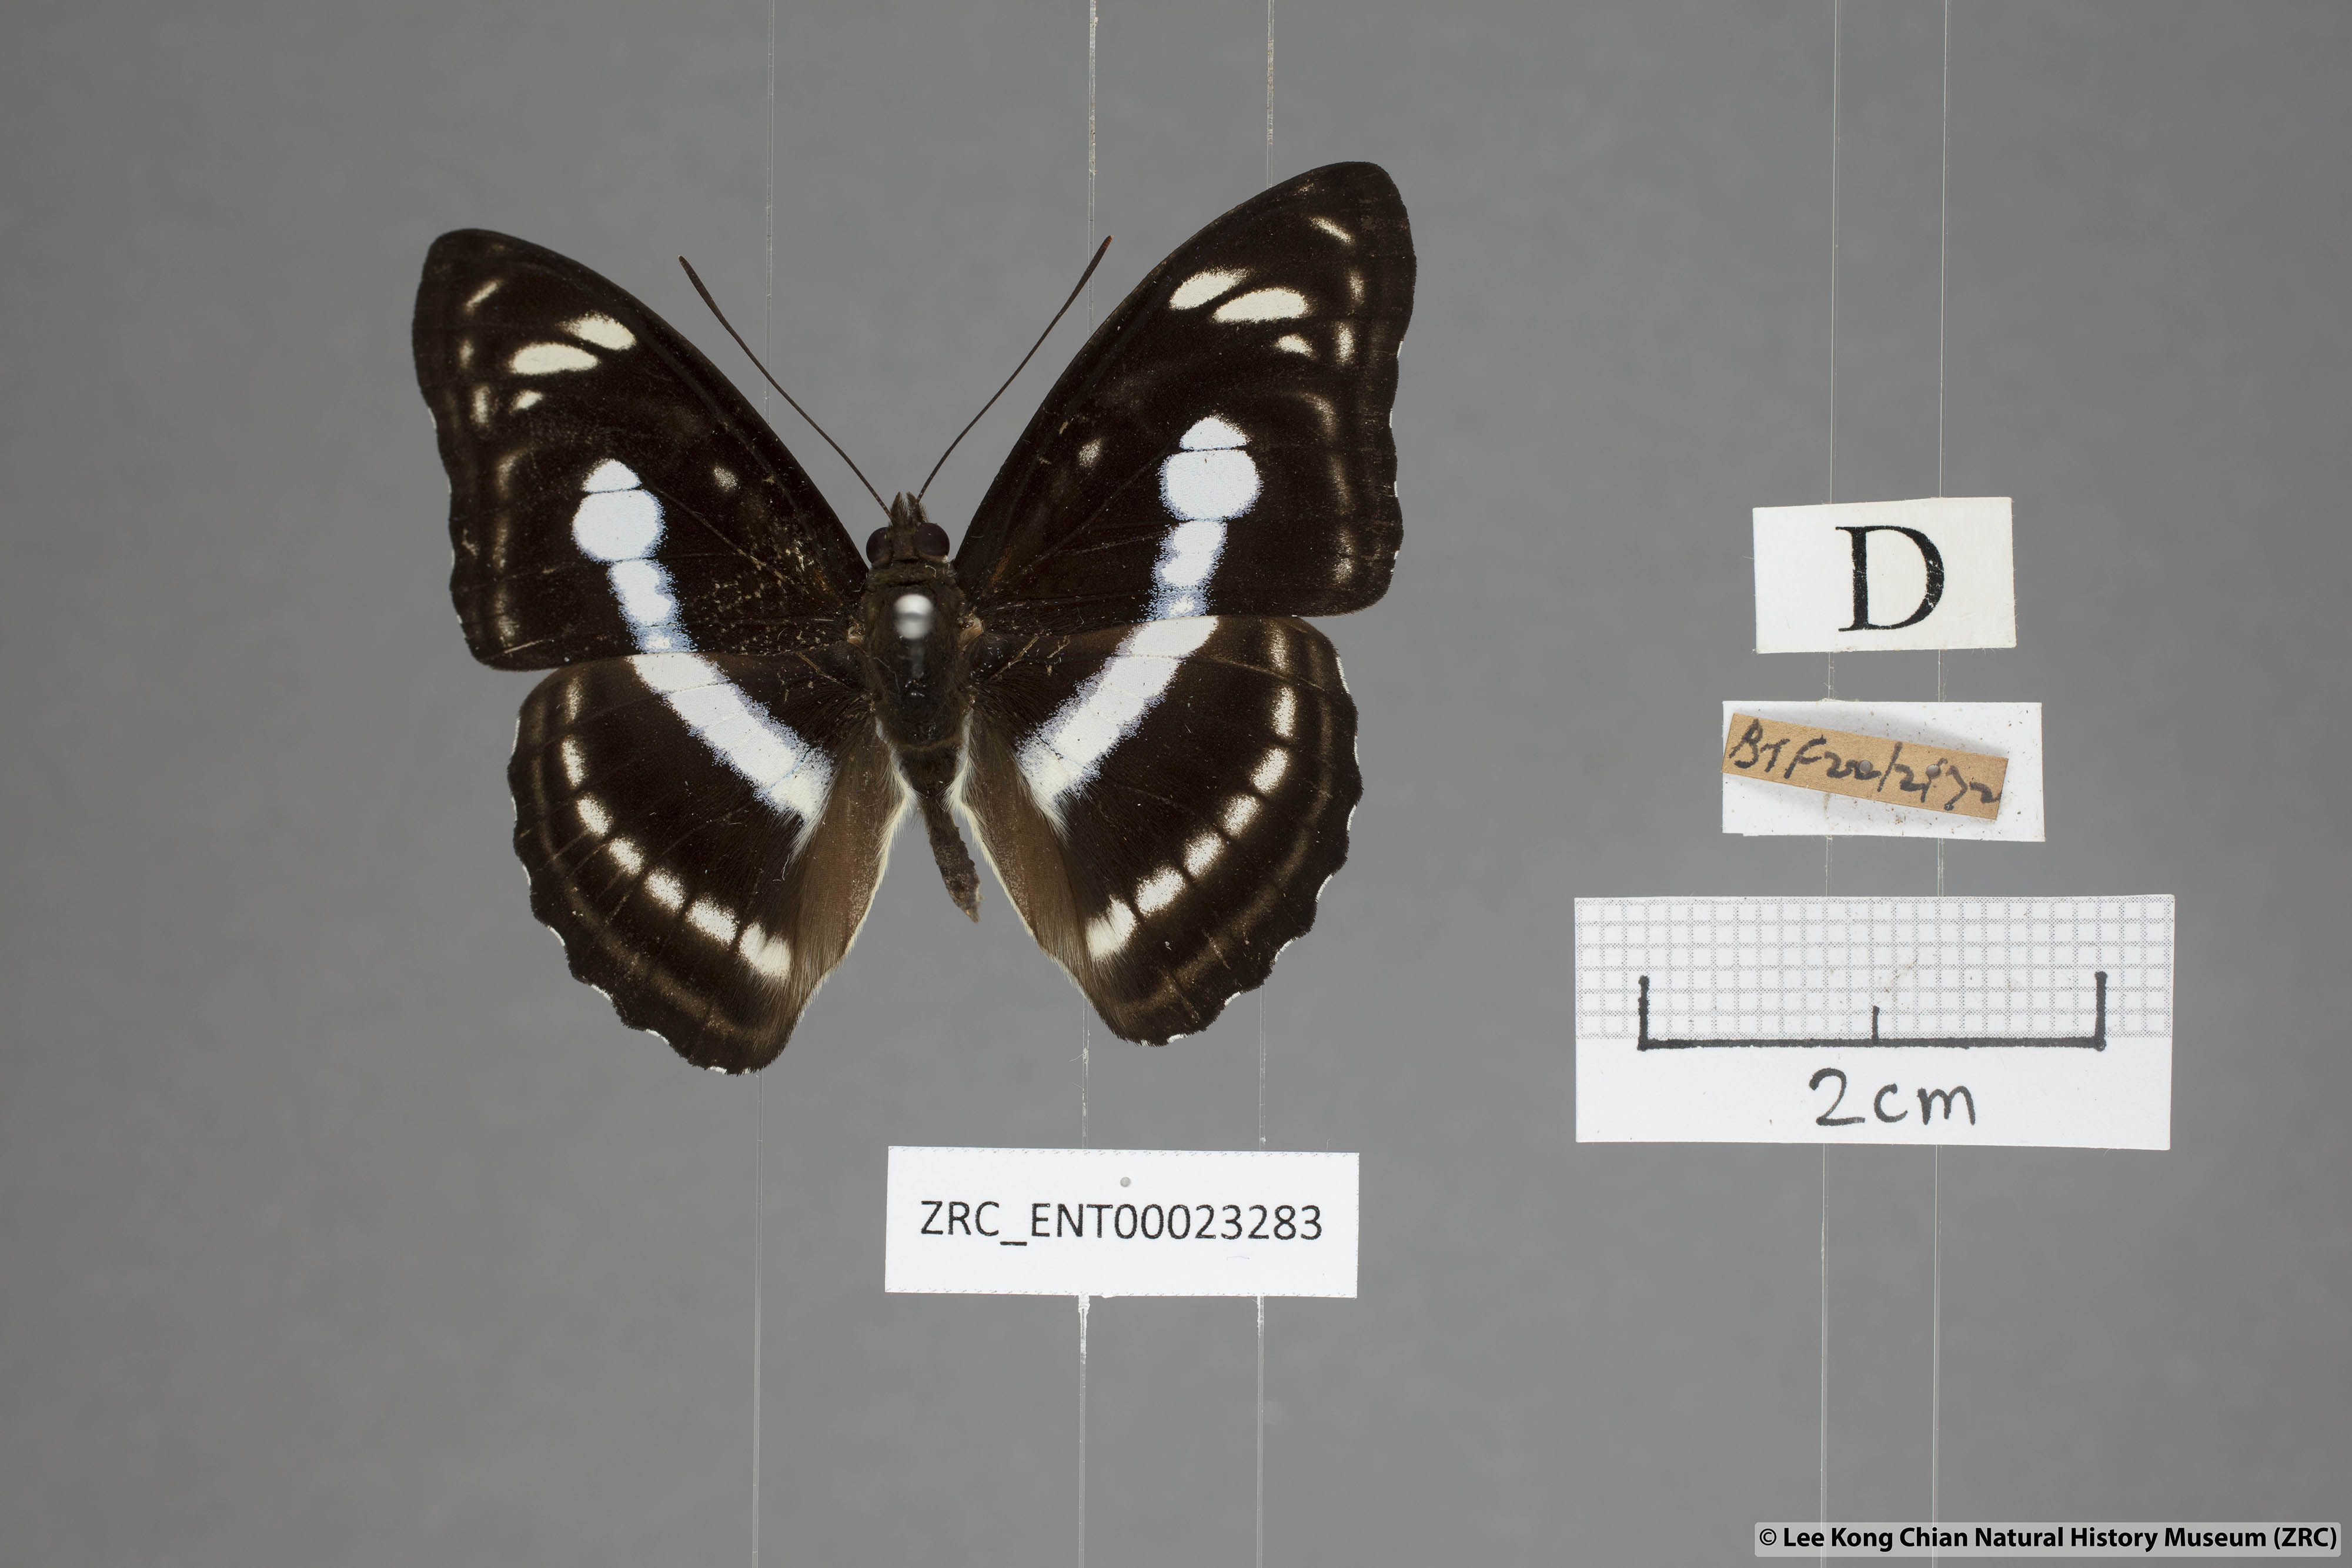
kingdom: Animalia
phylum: Arthropoda
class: Insecta
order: Lepidoptera
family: Nymphalidae
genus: Parathyma
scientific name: Parathyma selenophora
